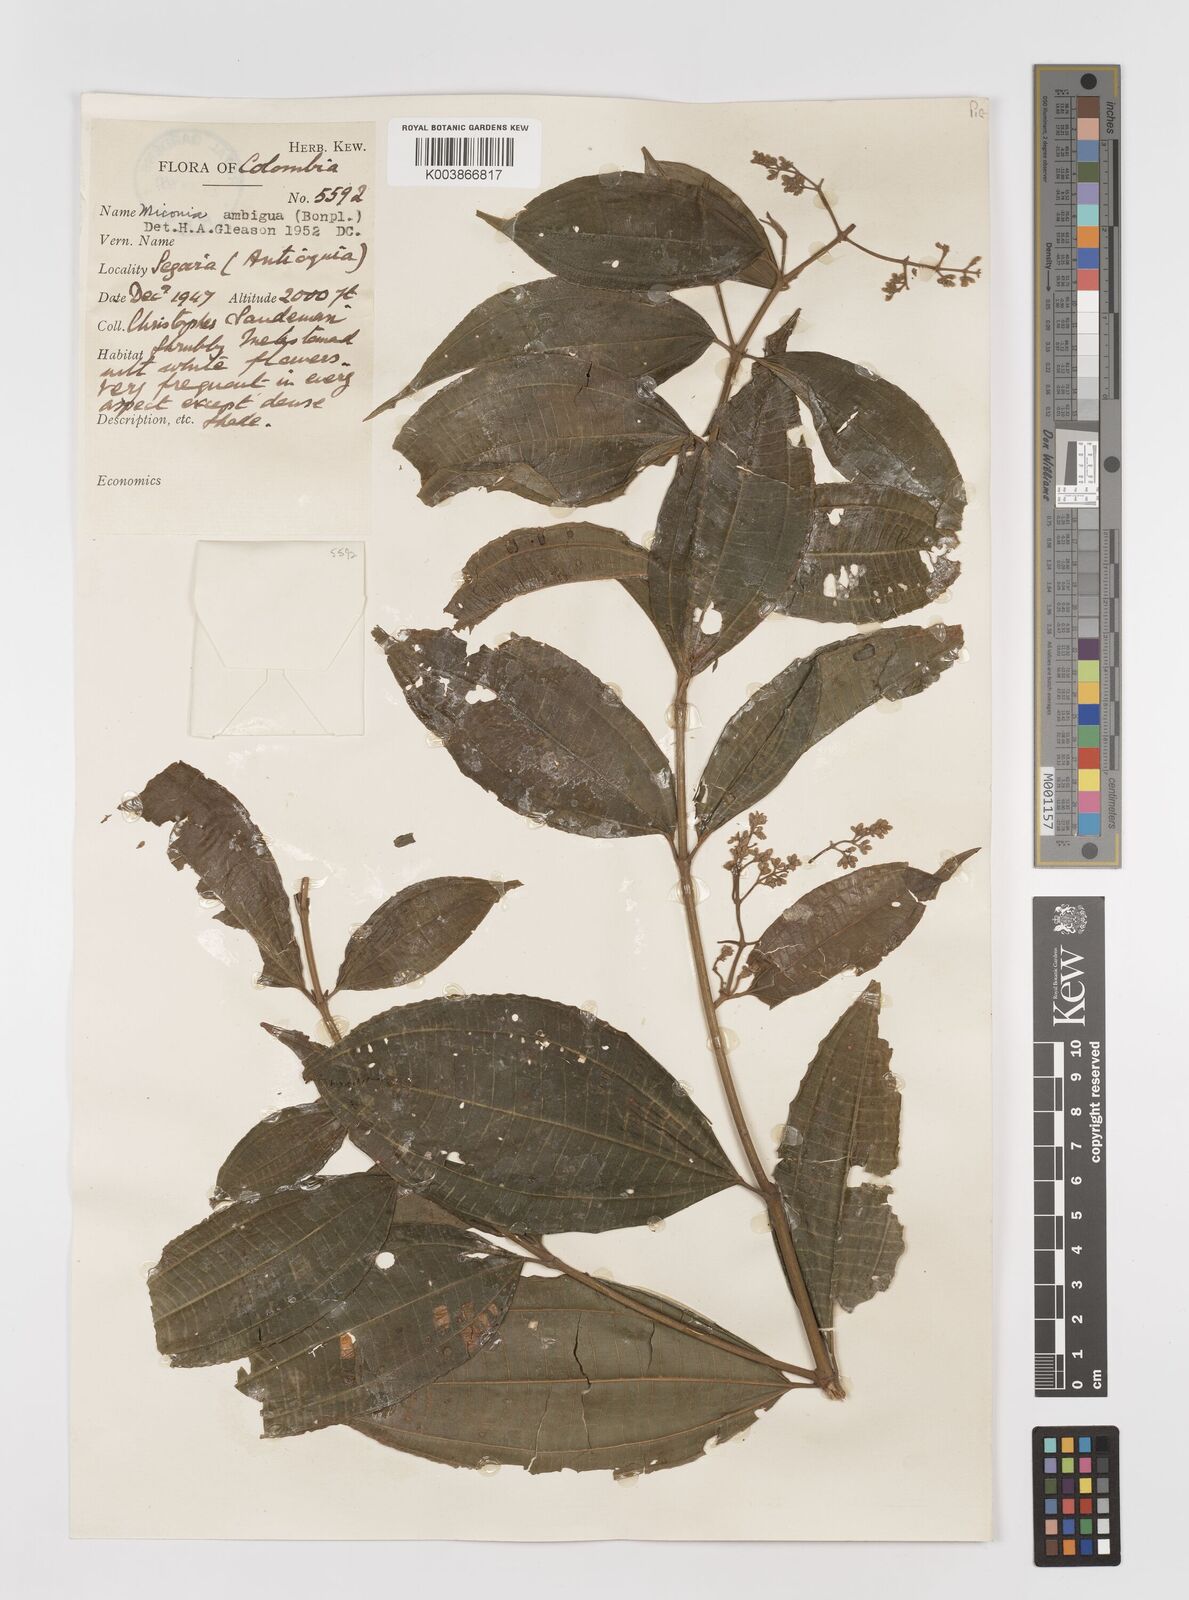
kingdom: Plantae
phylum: Tracheophyta
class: Magnoliopsida
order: Myrtales
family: Melastomataceae
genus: Miconia
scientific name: Miconia virescens
